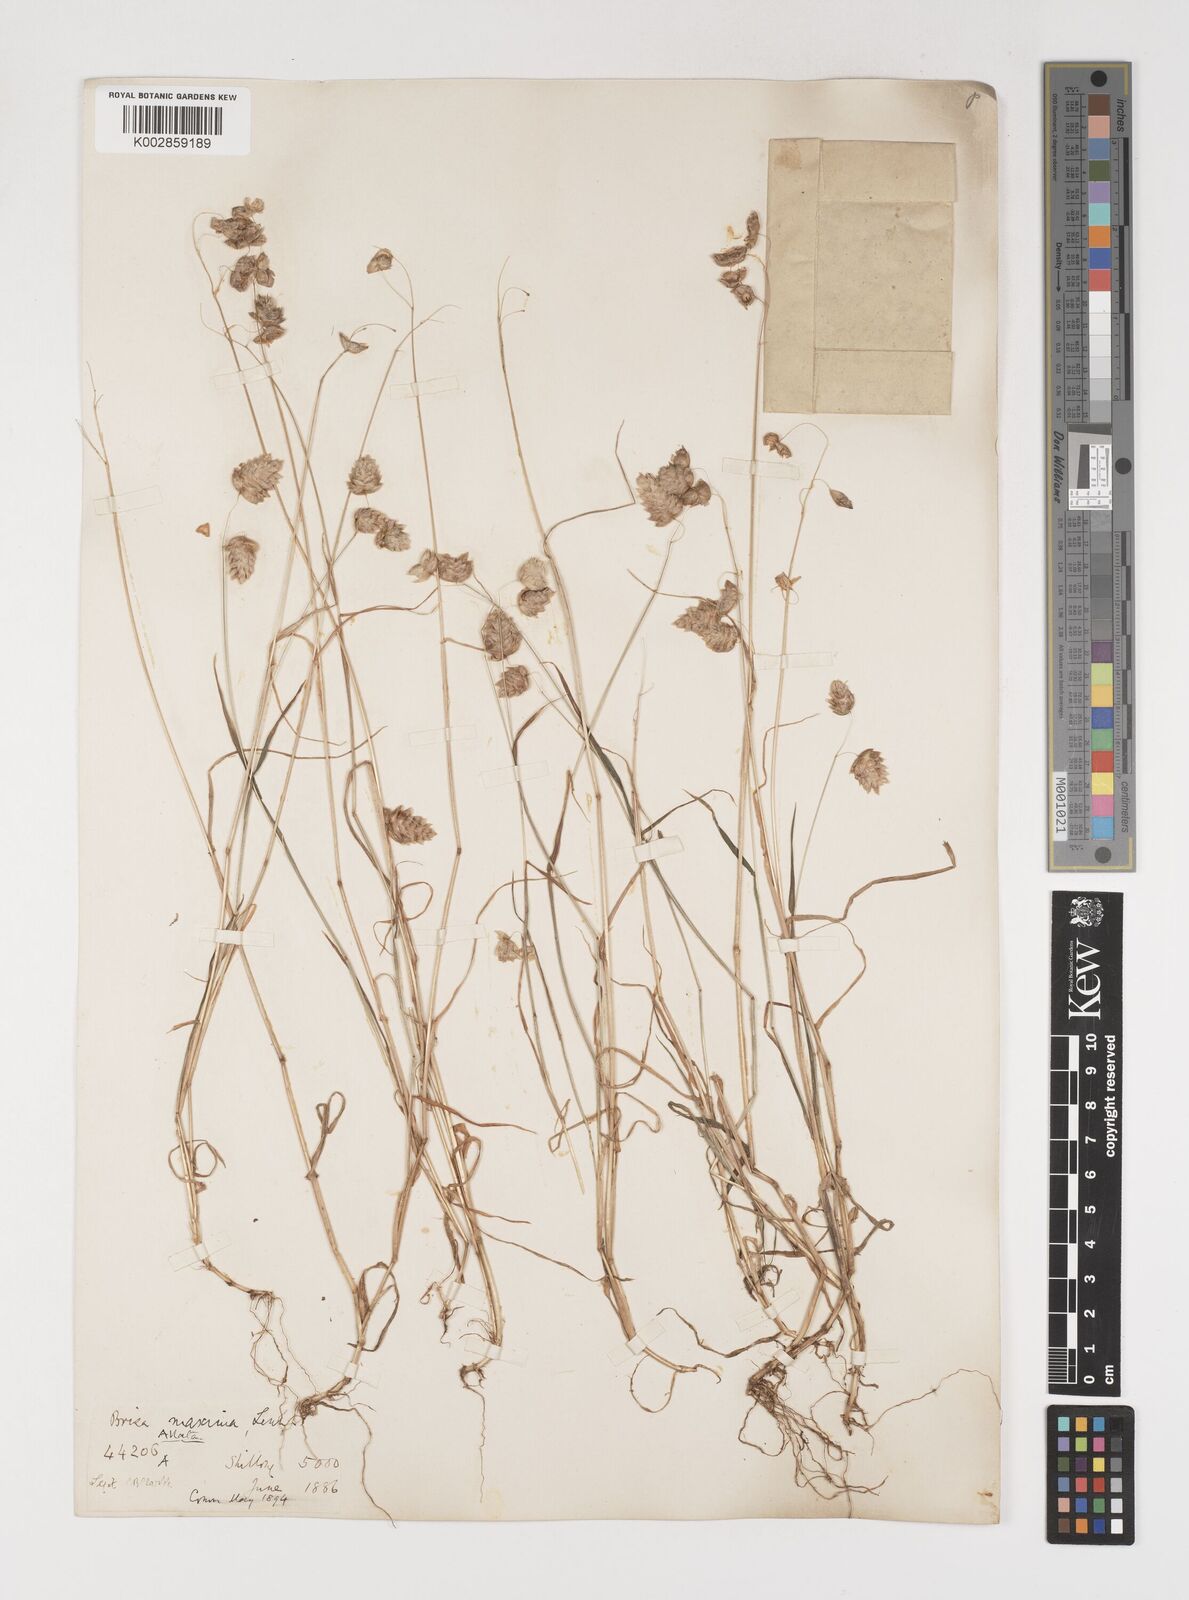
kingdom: Plantae
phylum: Tracheophyta
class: Liliopsida
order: Poales
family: Poaceae
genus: Briza
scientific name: Briza maxima
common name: Big quakinggrass
